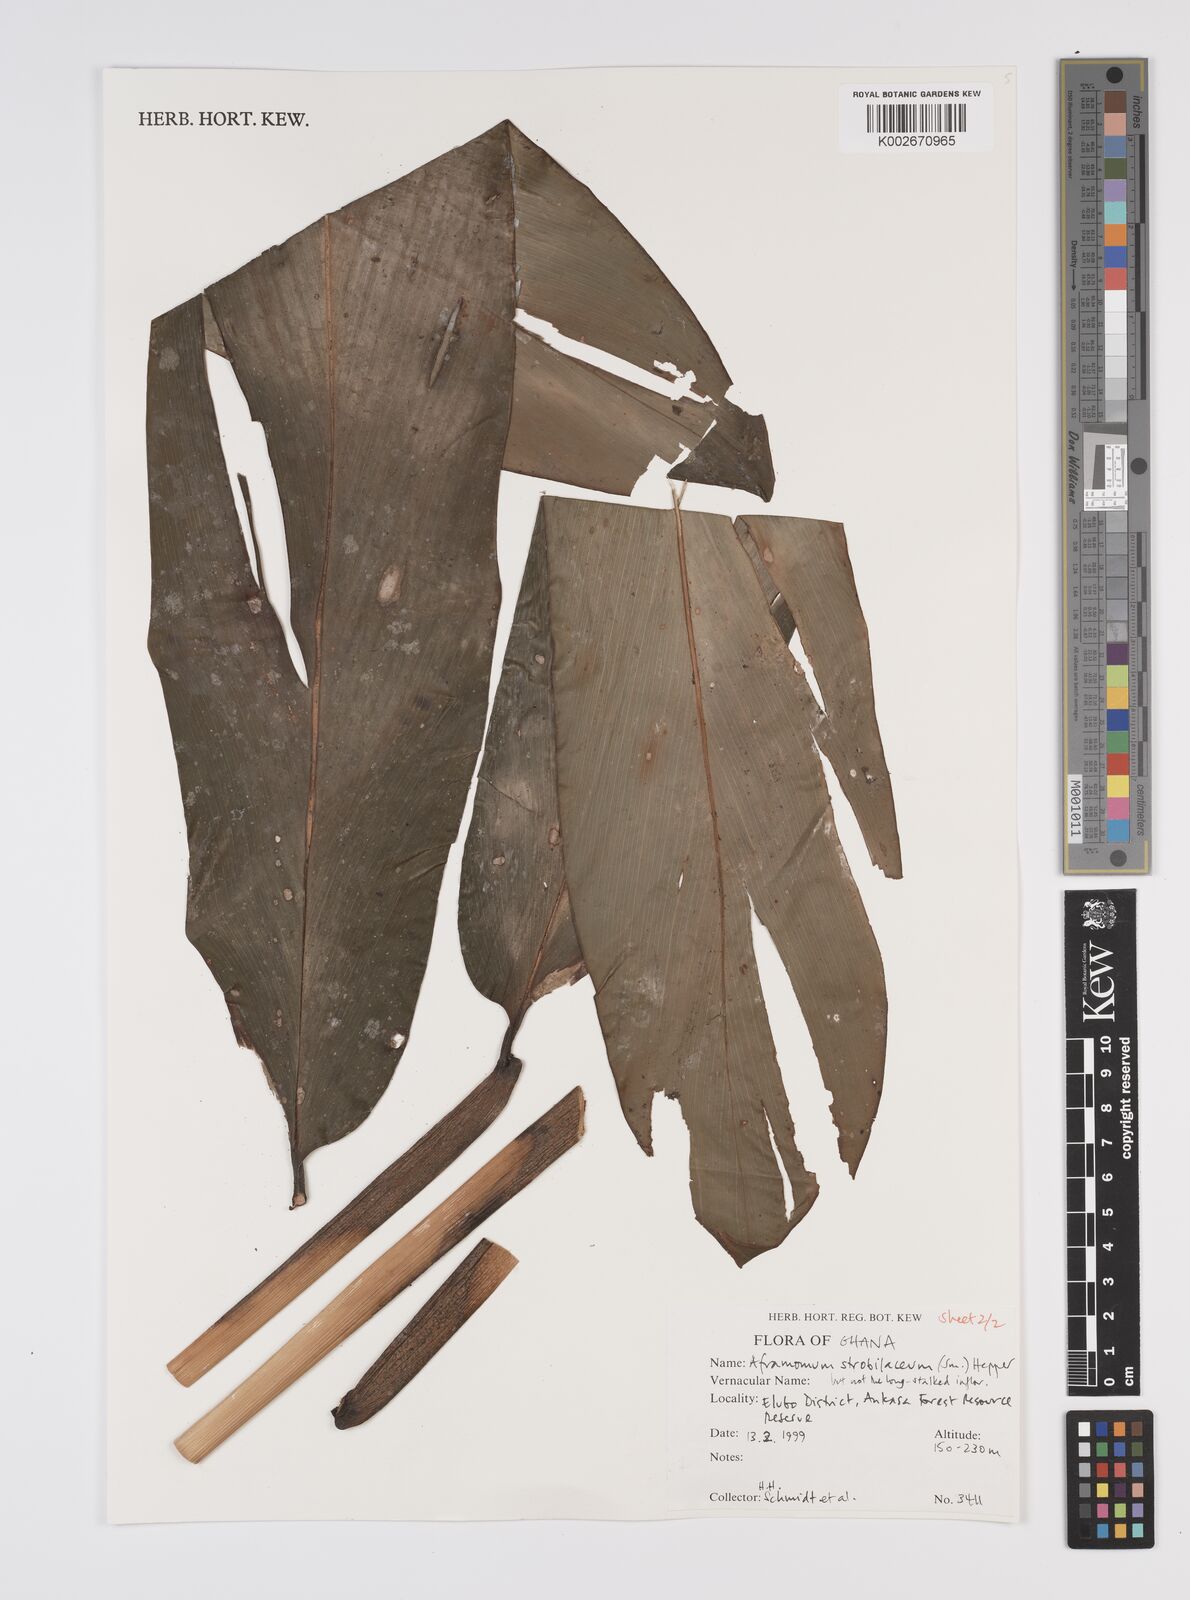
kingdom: Plantae
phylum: Tracheophyta
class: Liliopsida
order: Zingiberales
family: Zingiberaceae
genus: Aframomum
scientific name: Aframomum strobilaceum
